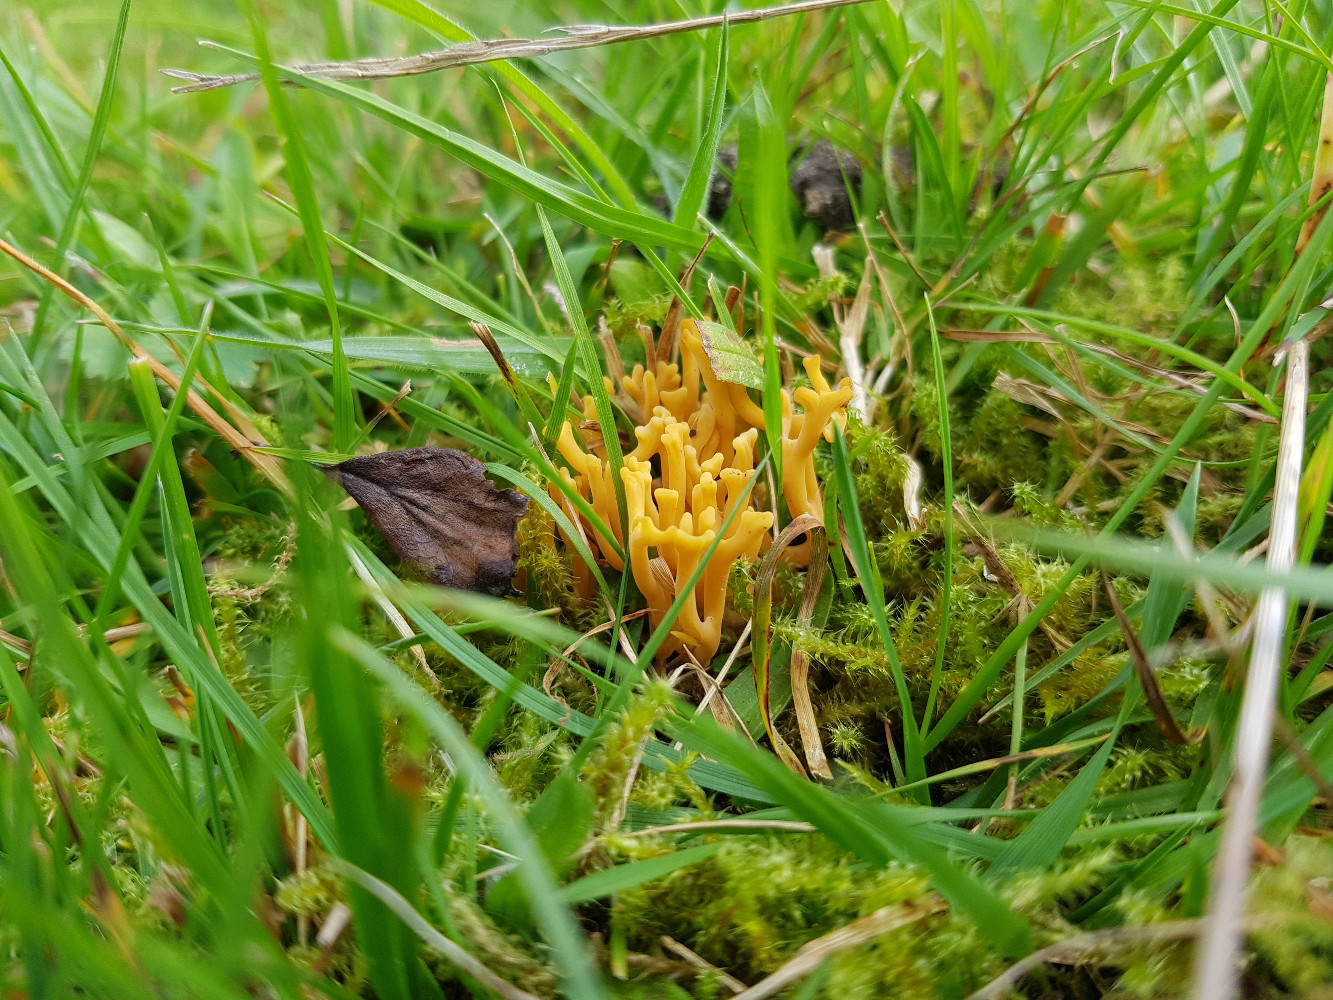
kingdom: Fungi
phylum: Basidiomycota
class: Agaricomycetes
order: Agaricales
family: Clavariaceae
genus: Clavulinopsis
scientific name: Clavulinopsis corniculata
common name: eng-køllesvamp
